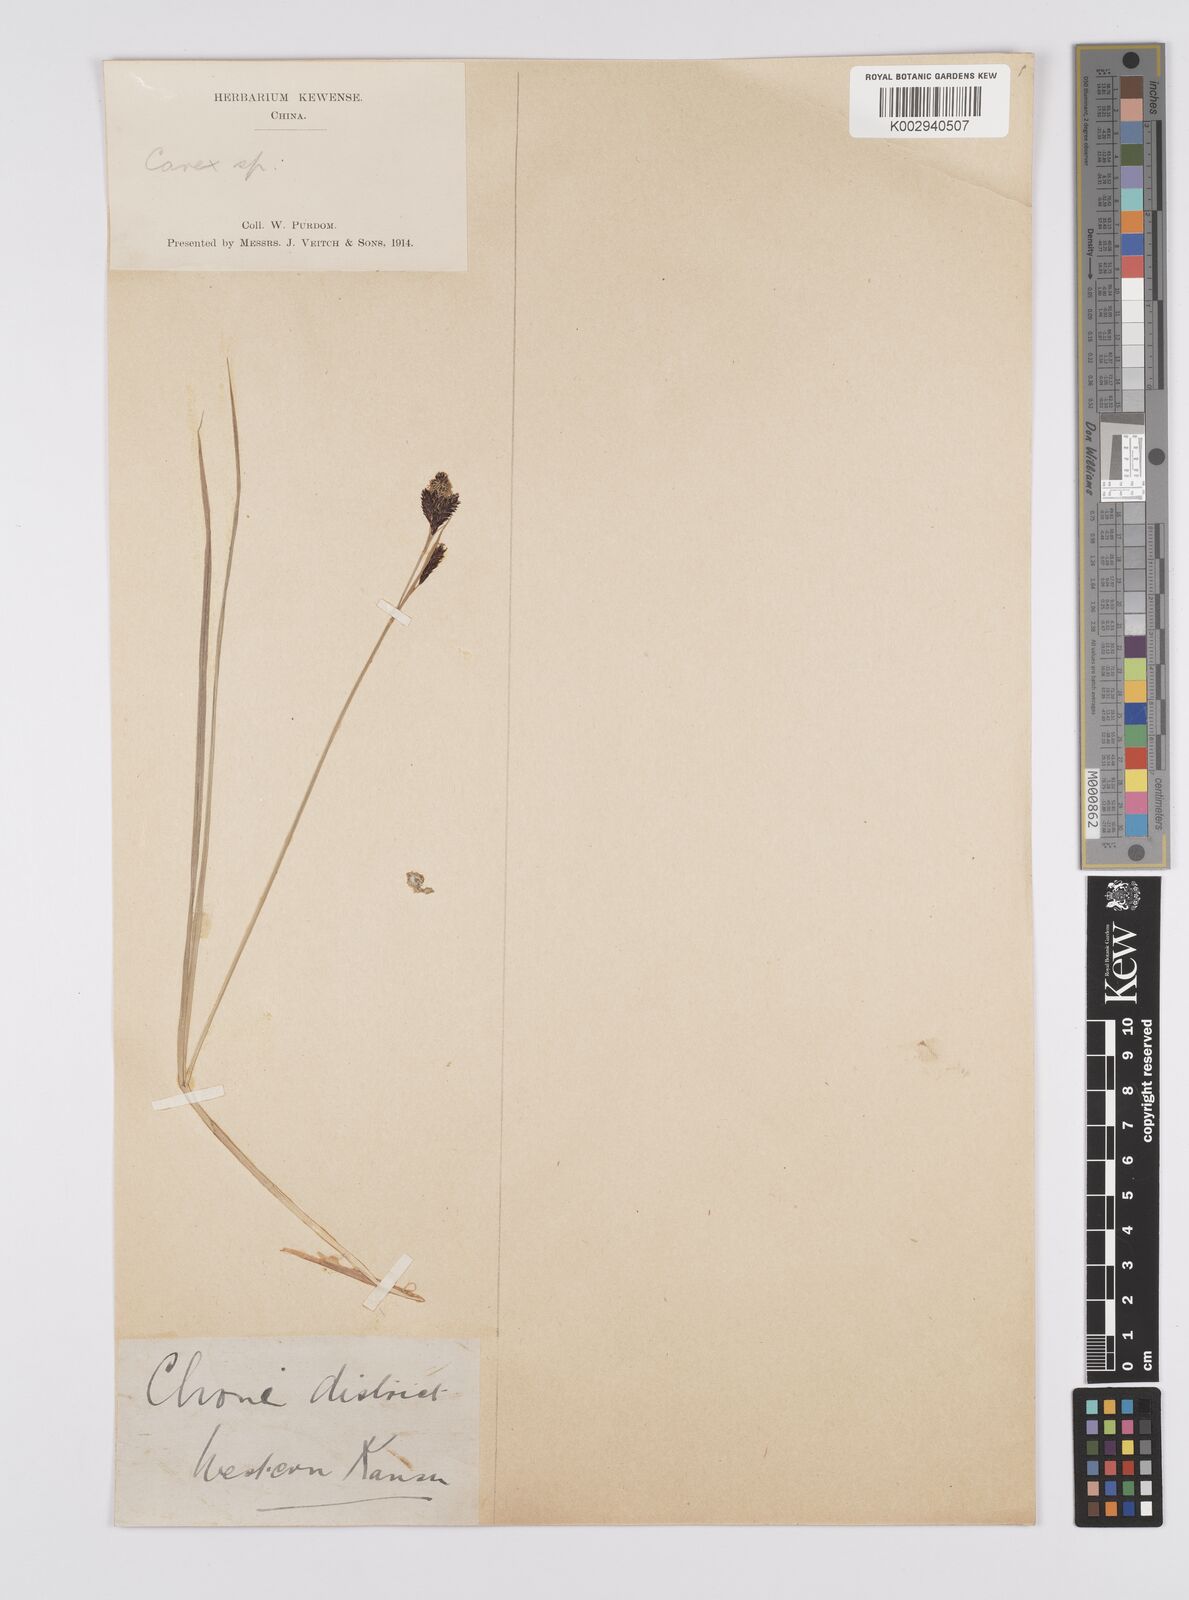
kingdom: Plantae
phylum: Tracheophyta
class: Liliopsida
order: Poales
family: Cyperaceae
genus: Carex
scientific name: Carex atrata
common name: Black alpine sedge
